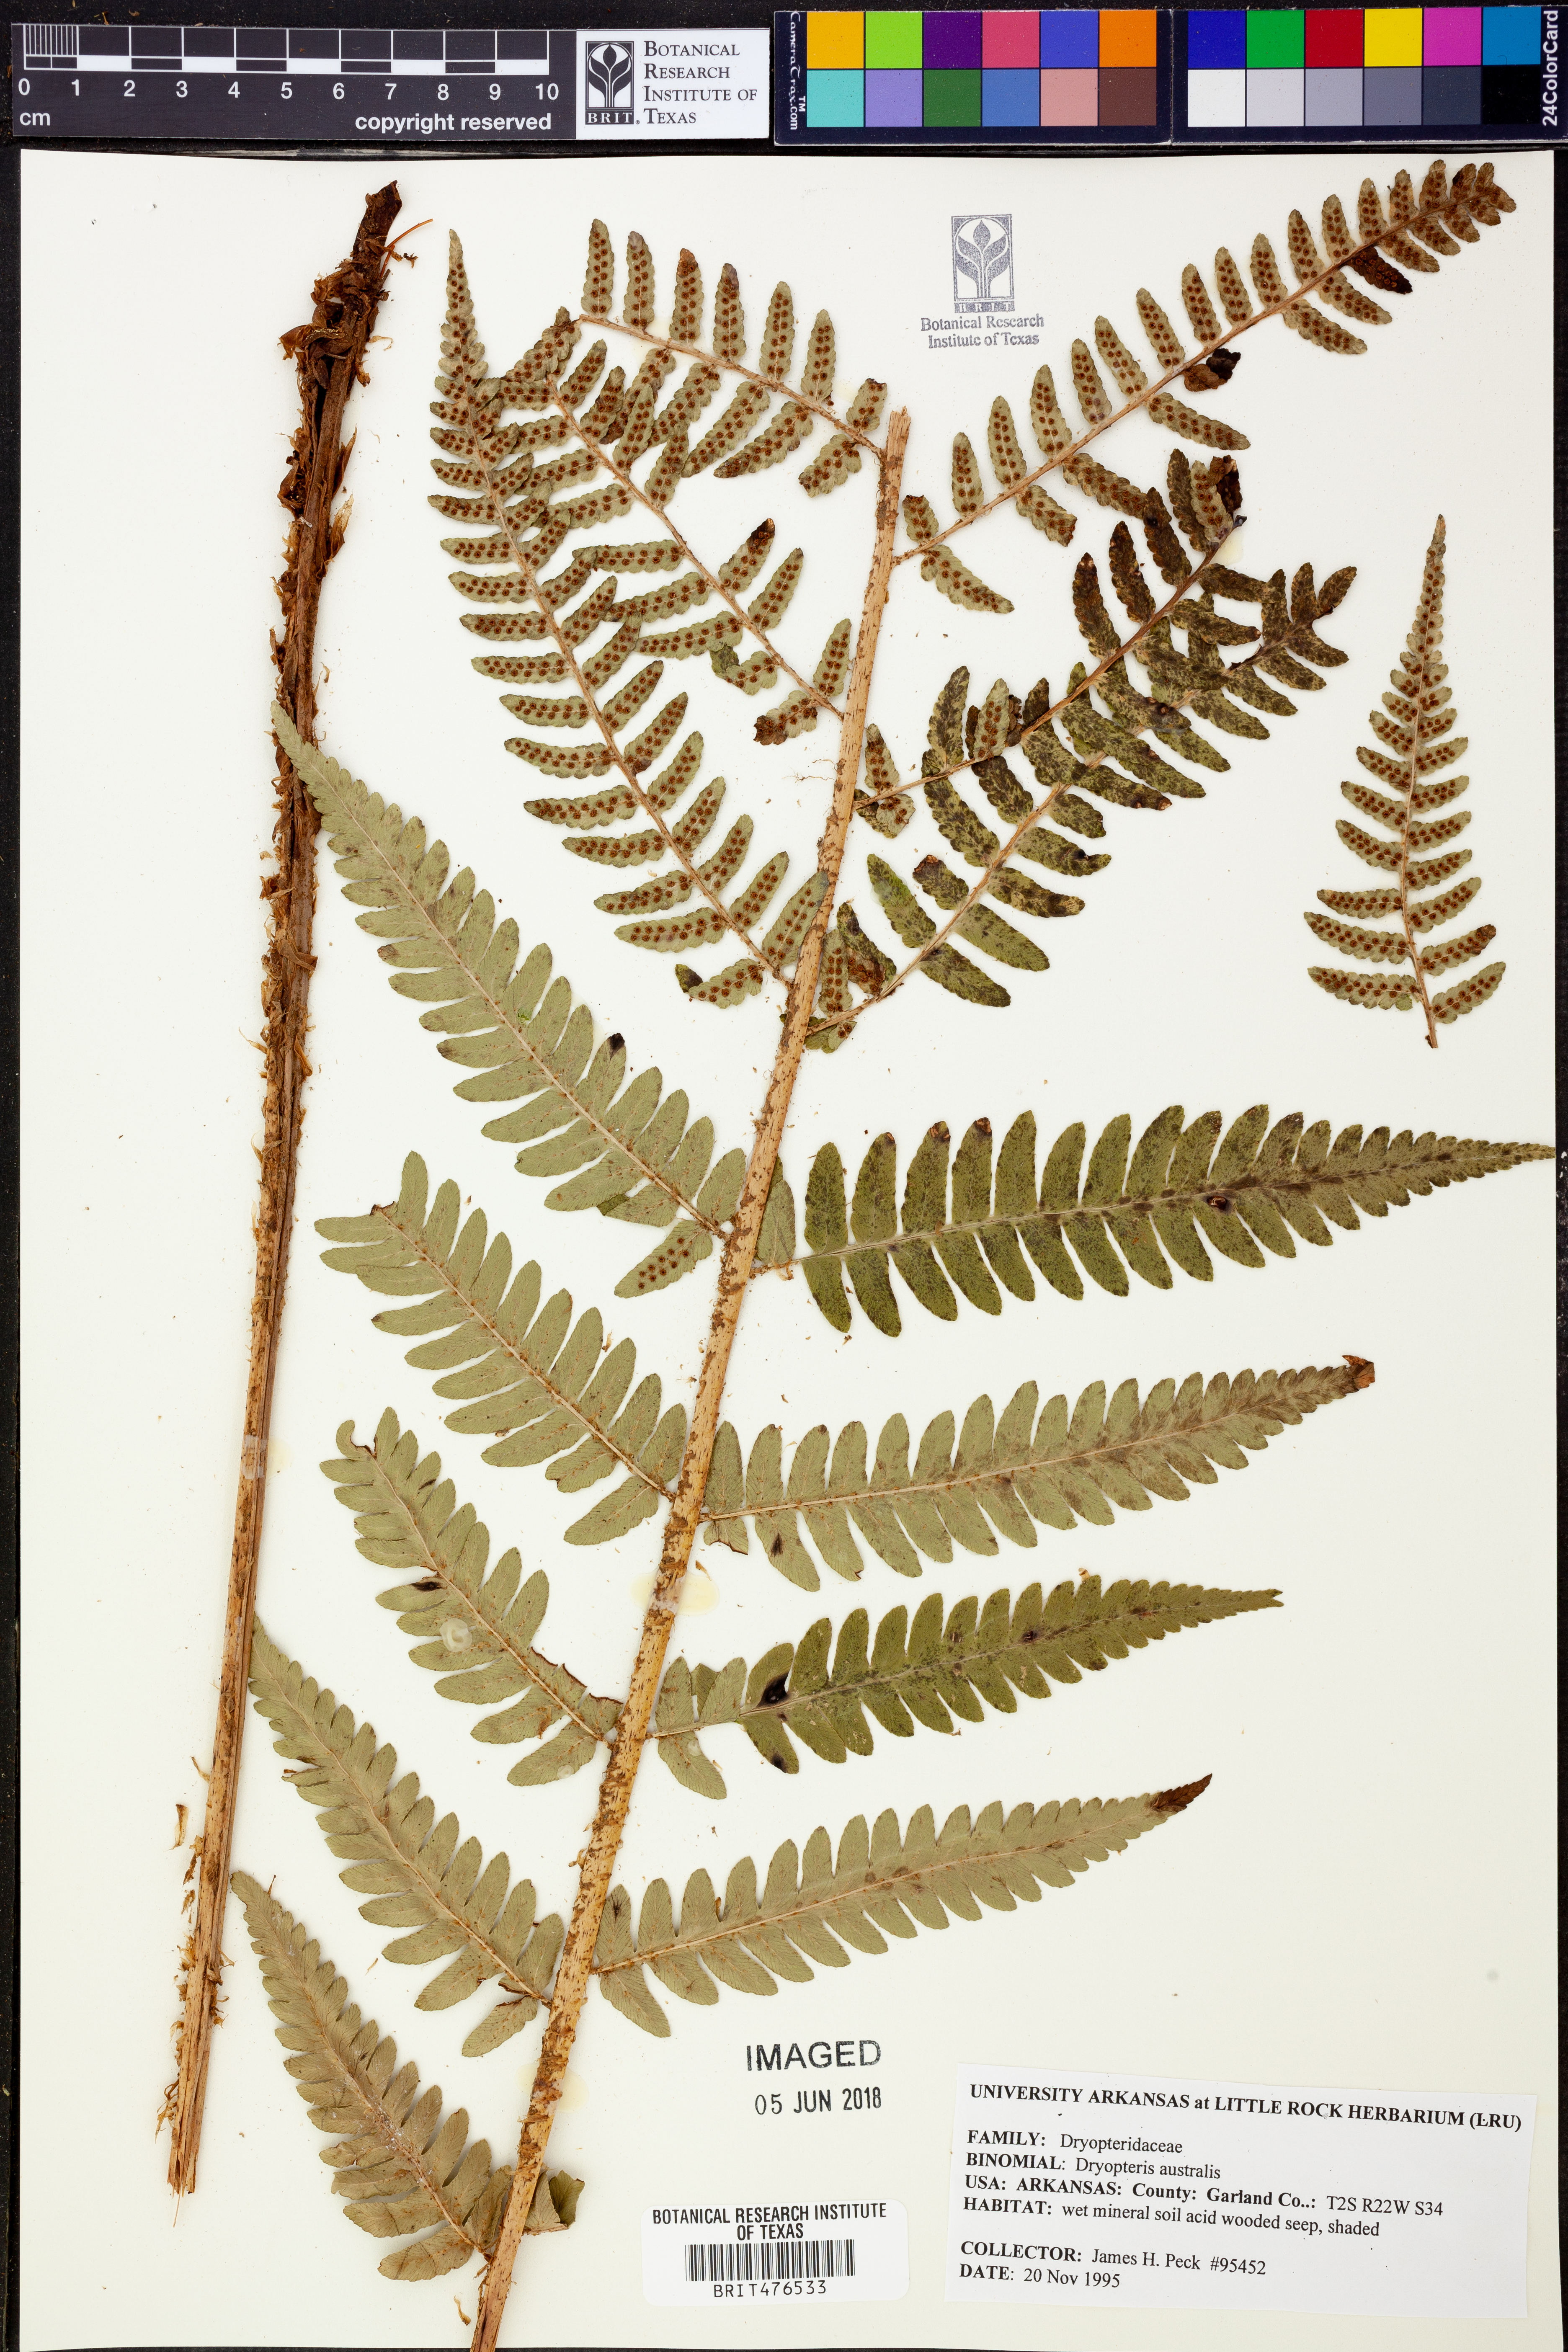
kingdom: Plantae
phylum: Tracheophyta
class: Polypodiopsida
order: Polypodiales
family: Dryopteridaceae
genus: Dryopteris
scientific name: Dryopteris australis
